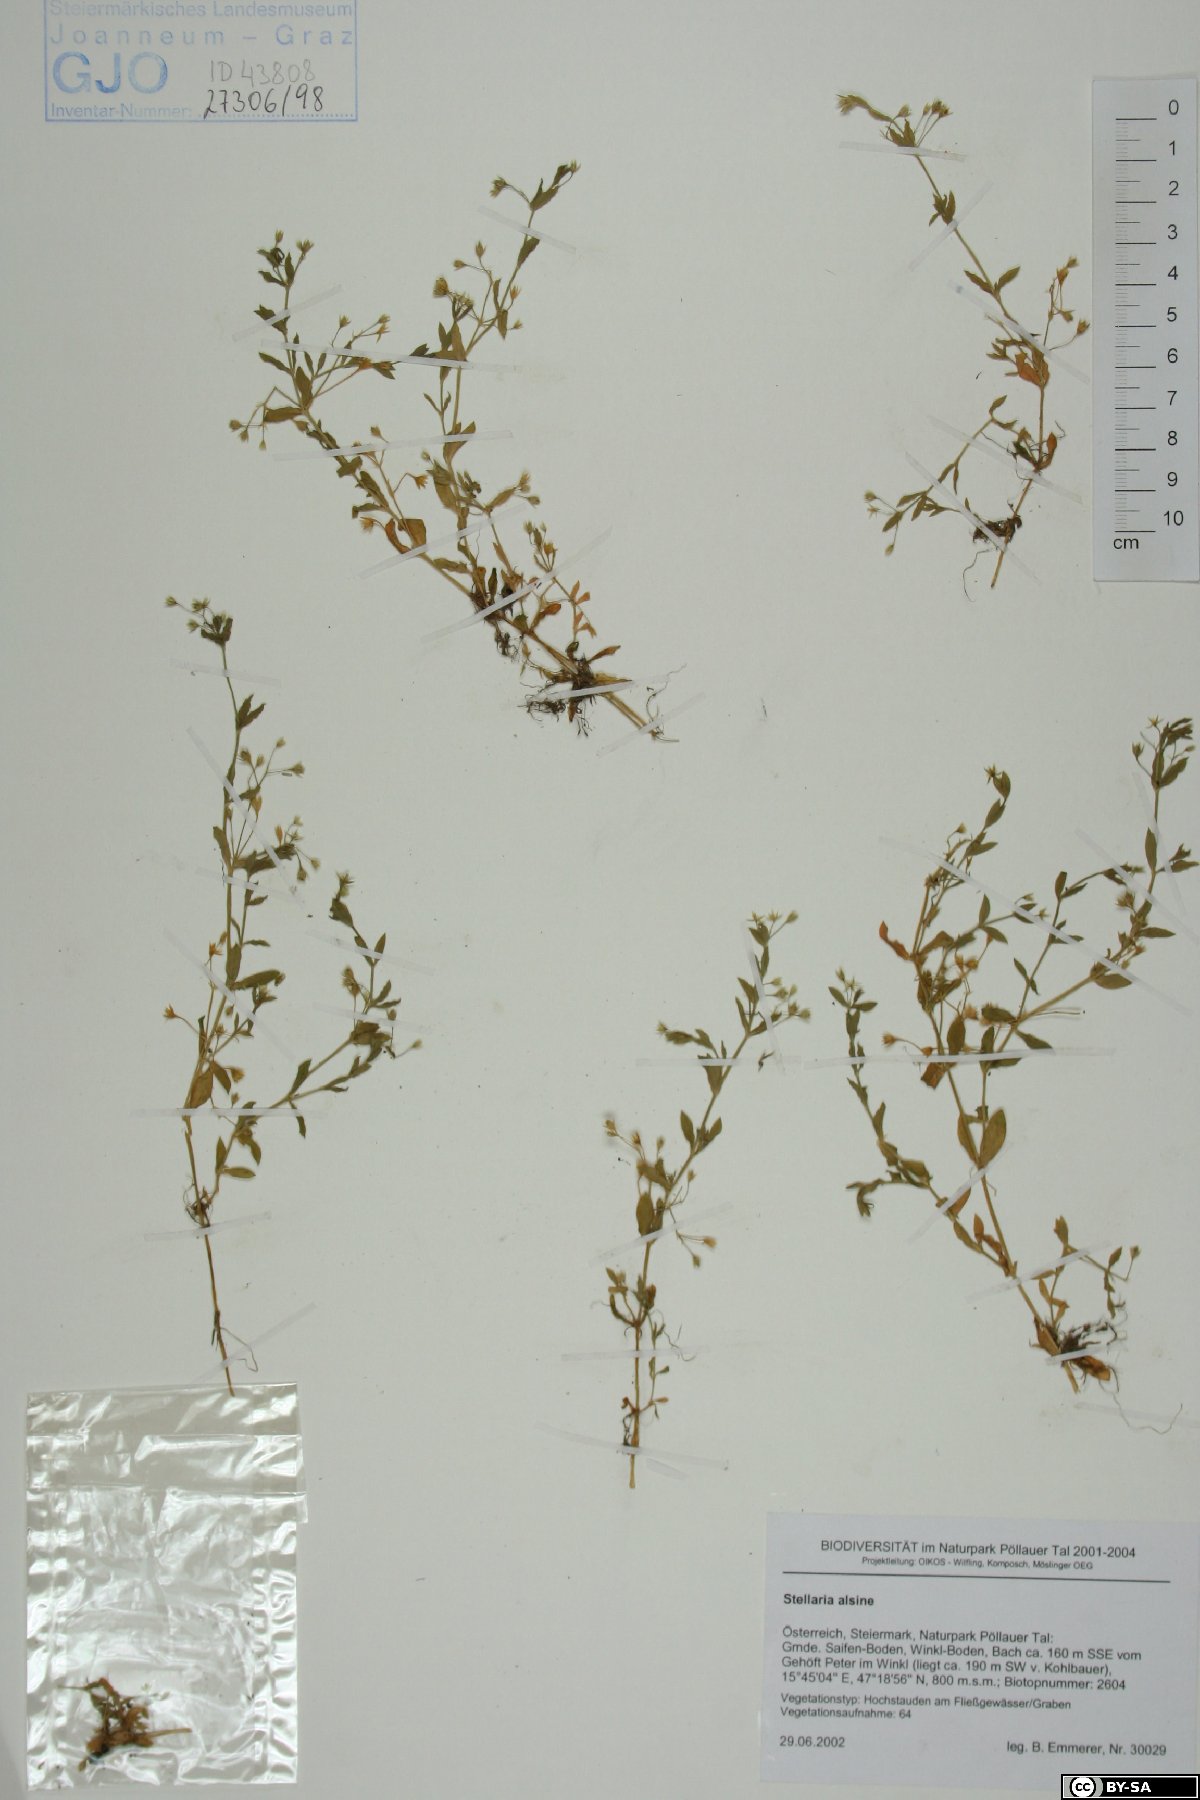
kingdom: Plantae
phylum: Tracheophyta
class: Magnoliopsida
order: Caryophyllales
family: Caryophyllaceae
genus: Stellaria
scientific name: Stellaria alsine
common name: Bog stitchwort
